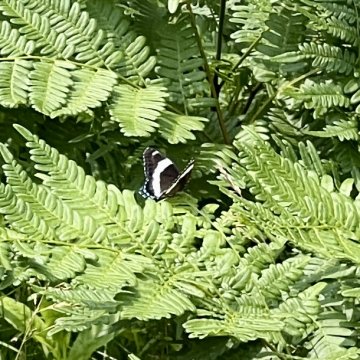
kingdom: Animalia
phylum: Arthropoda
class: Insecta
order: Lepidoptera
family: Nymphalidae
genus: Limenitis
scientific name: Limenitis arthemis
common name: Red-spotted Admiral
